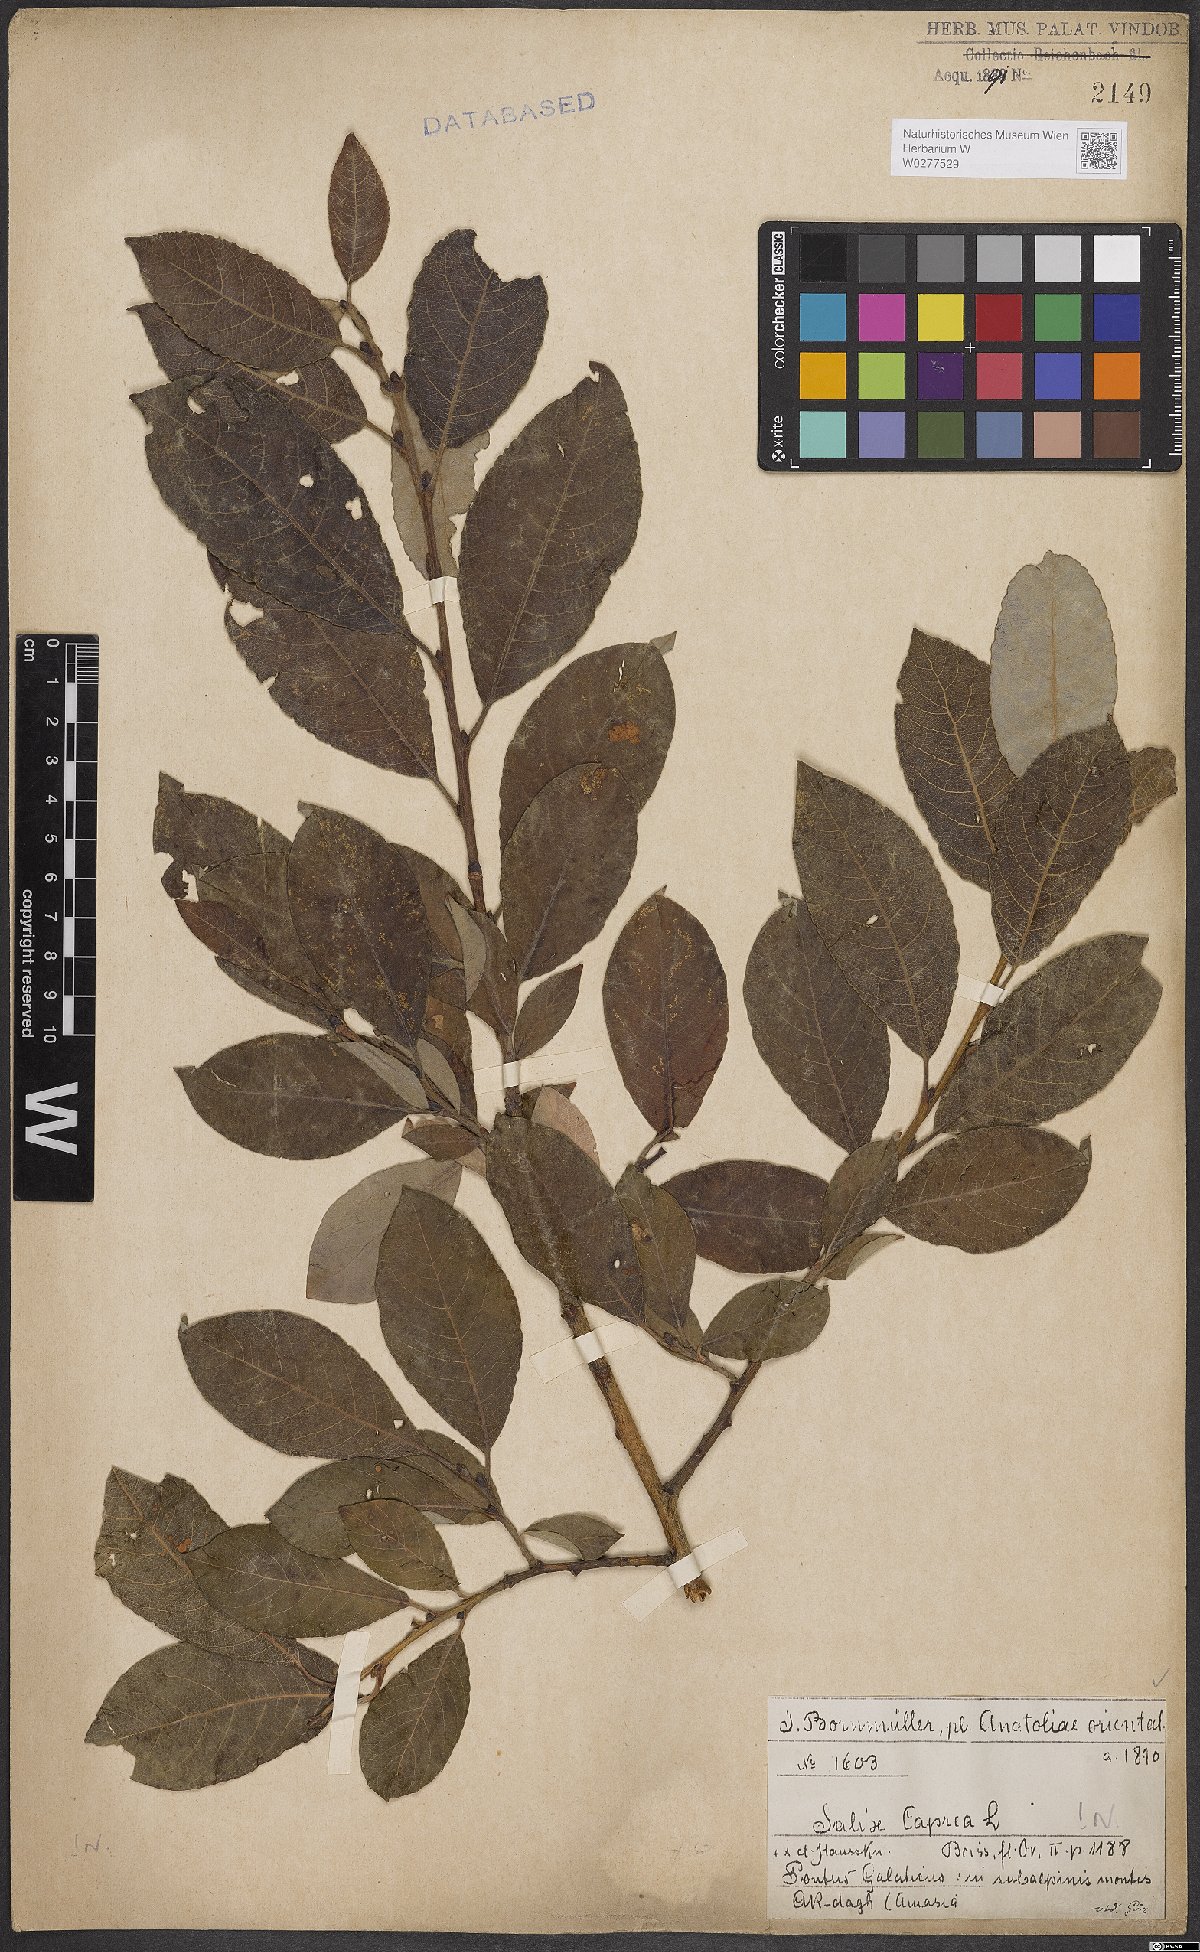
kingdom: Plantae
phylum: Tracheophyta
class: Magnoliopsida
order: Malpighiales
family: Salicaceae
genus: Salix
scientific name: Salix caprea
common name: Goat willow
